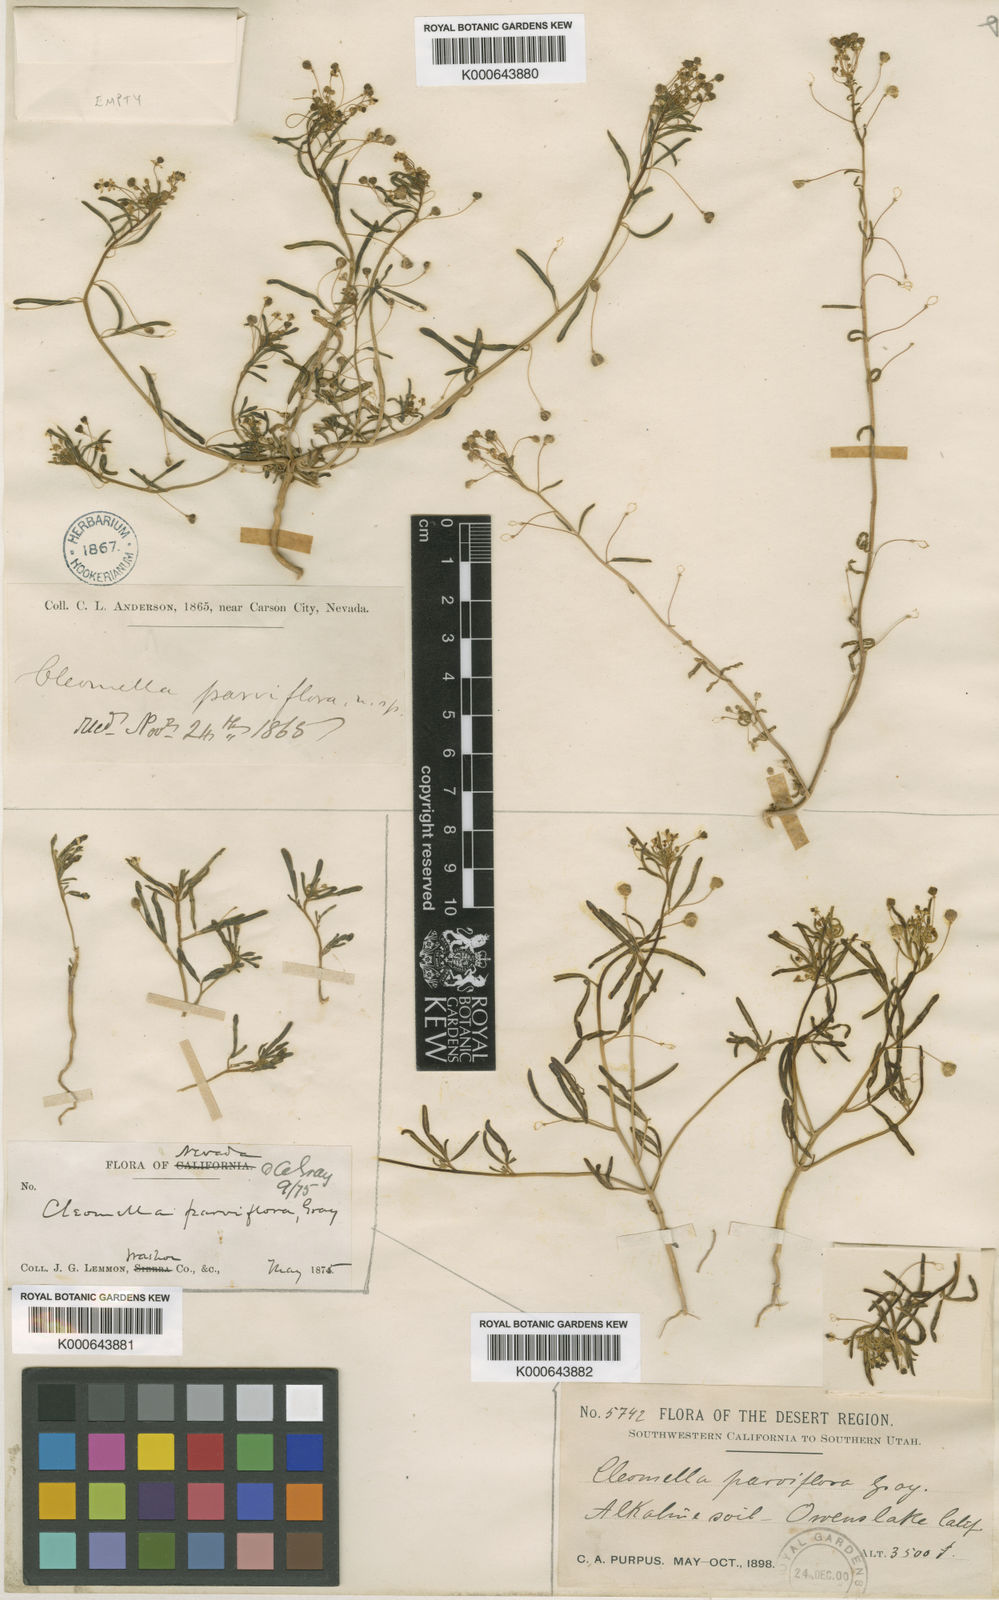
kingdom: Plantae
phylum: Tracheophyta
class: Magnoliopsida
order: Brassicales
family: Cleomaceae
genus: Cleomella
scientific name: Cleomella parviflora
